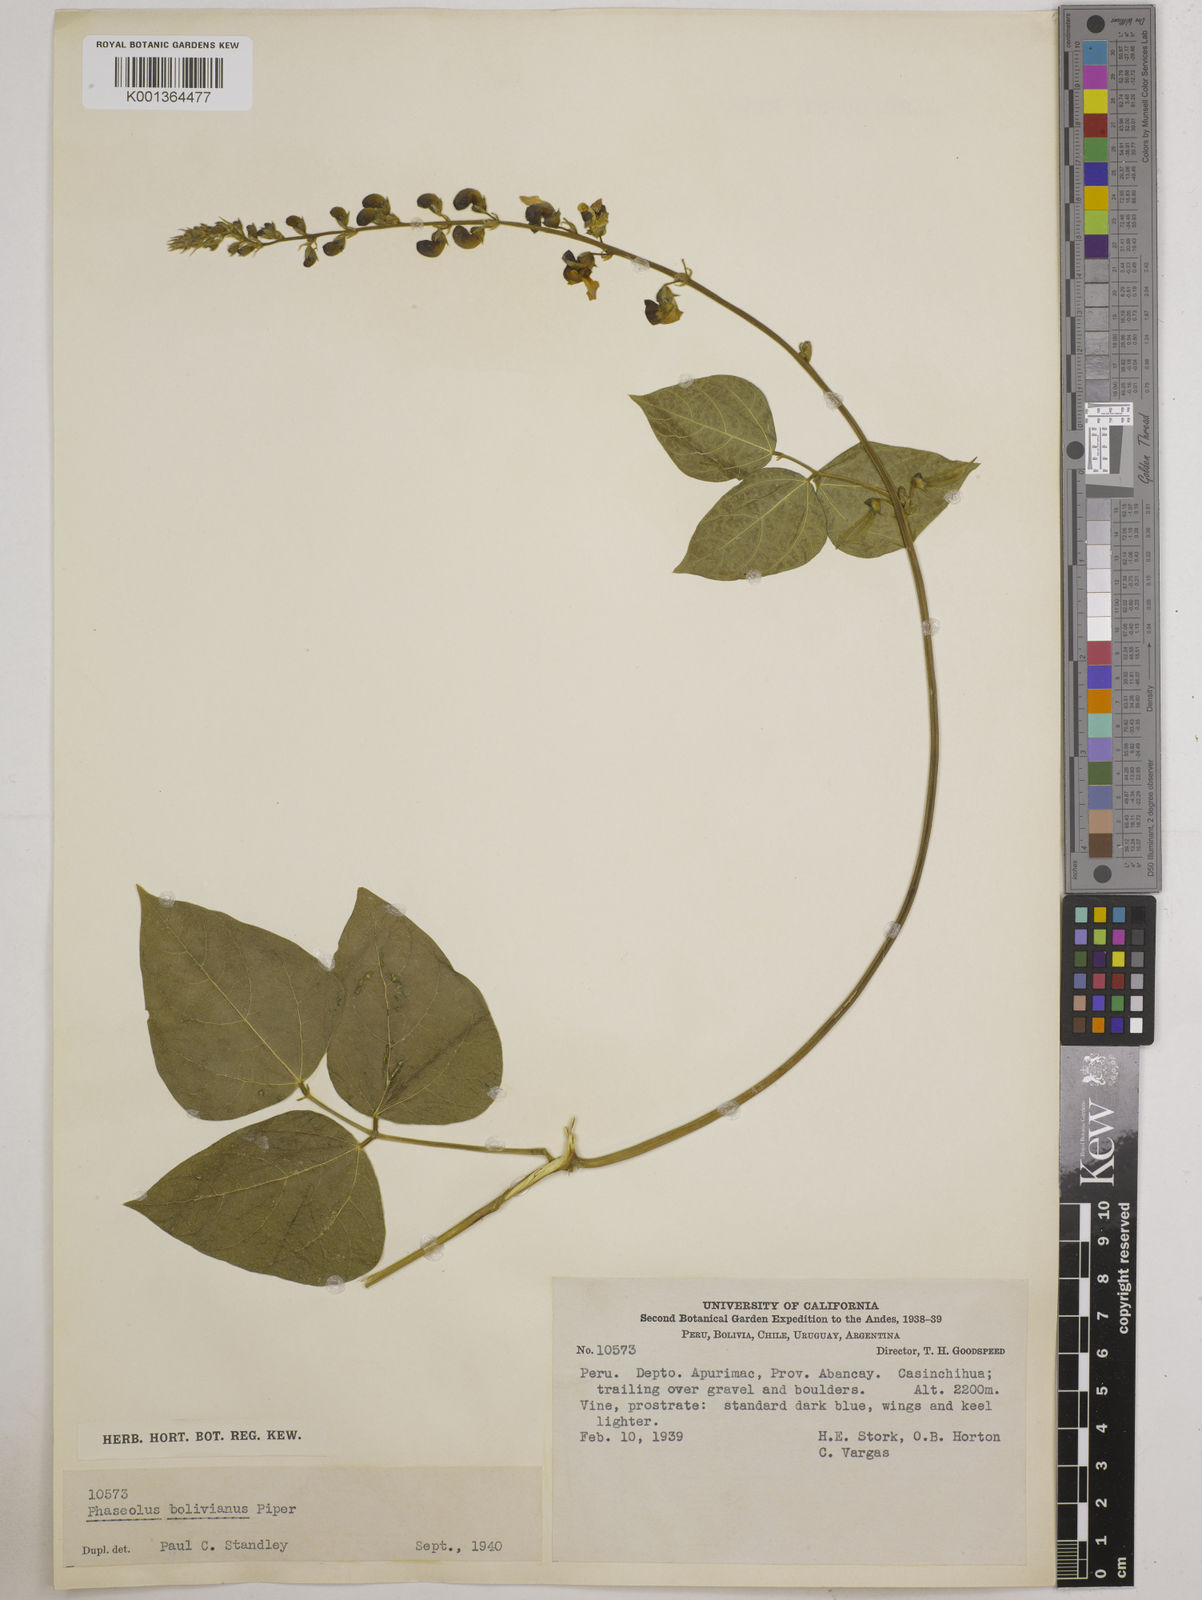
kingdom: Plantae
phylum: Tracheophyta
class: Magnoliopsida
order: Fabales
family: Fabaceae
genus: Phaseolus
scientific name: Phaseolus augusti
